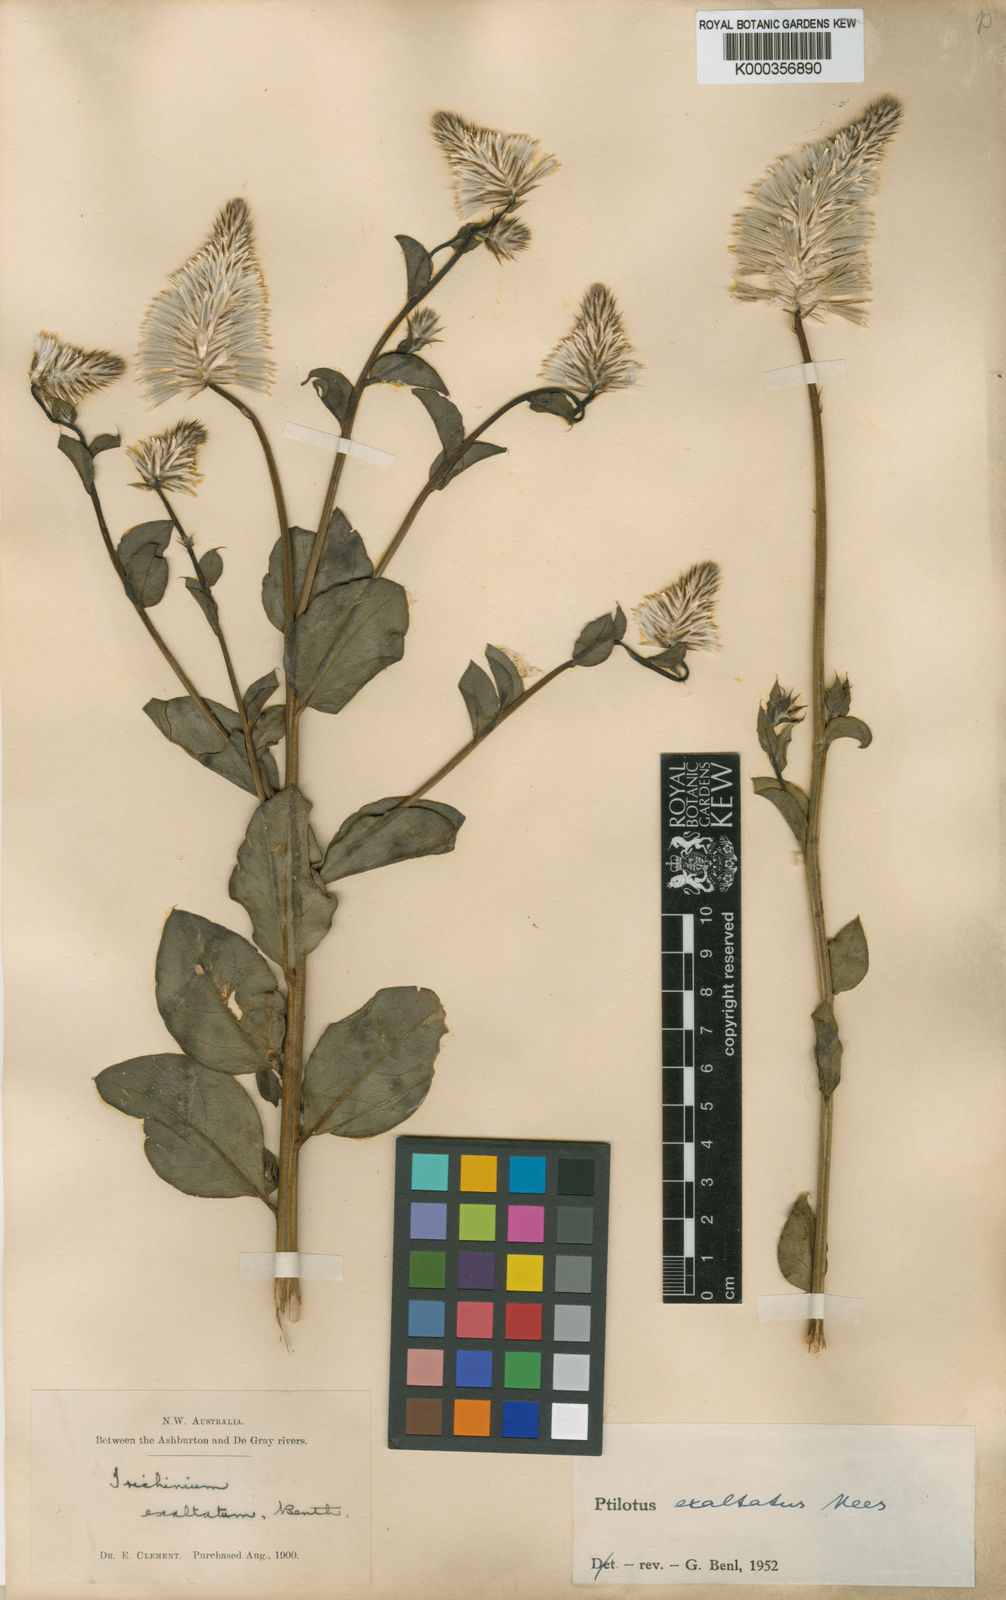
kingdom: Plantae
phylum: Tracheophyta
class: Magnoliopsida
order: Caryophyllales
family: Amaranthaceae
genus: Ptilotus
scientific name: Ptilotus exaltatus
